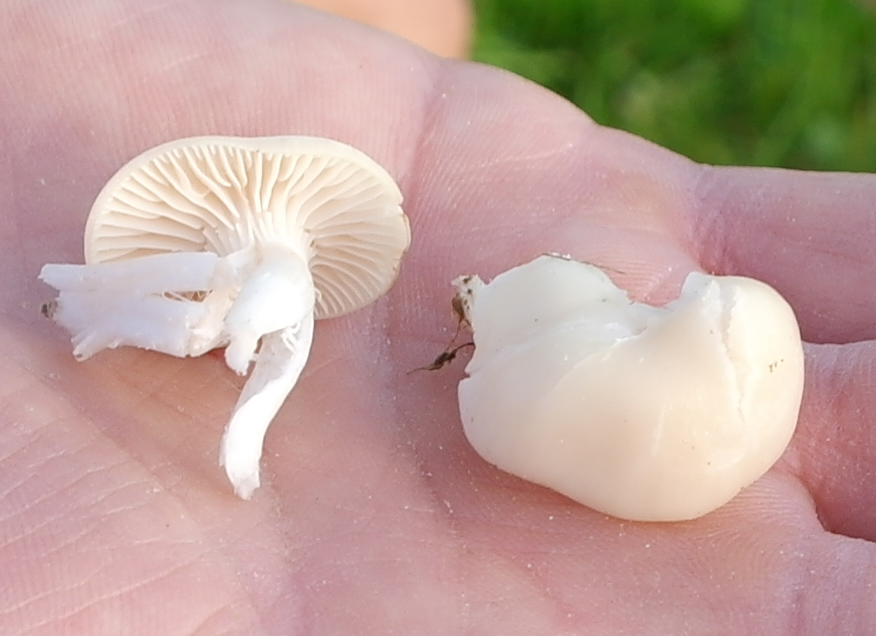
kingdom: Fungi
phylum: Basidiomycota
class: Agaricomycetes
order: Agaricales
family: Hygrophoraceae
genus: Cuphophyllus
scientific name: Cuphophyllus virgineus
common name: snehvid vokshat
